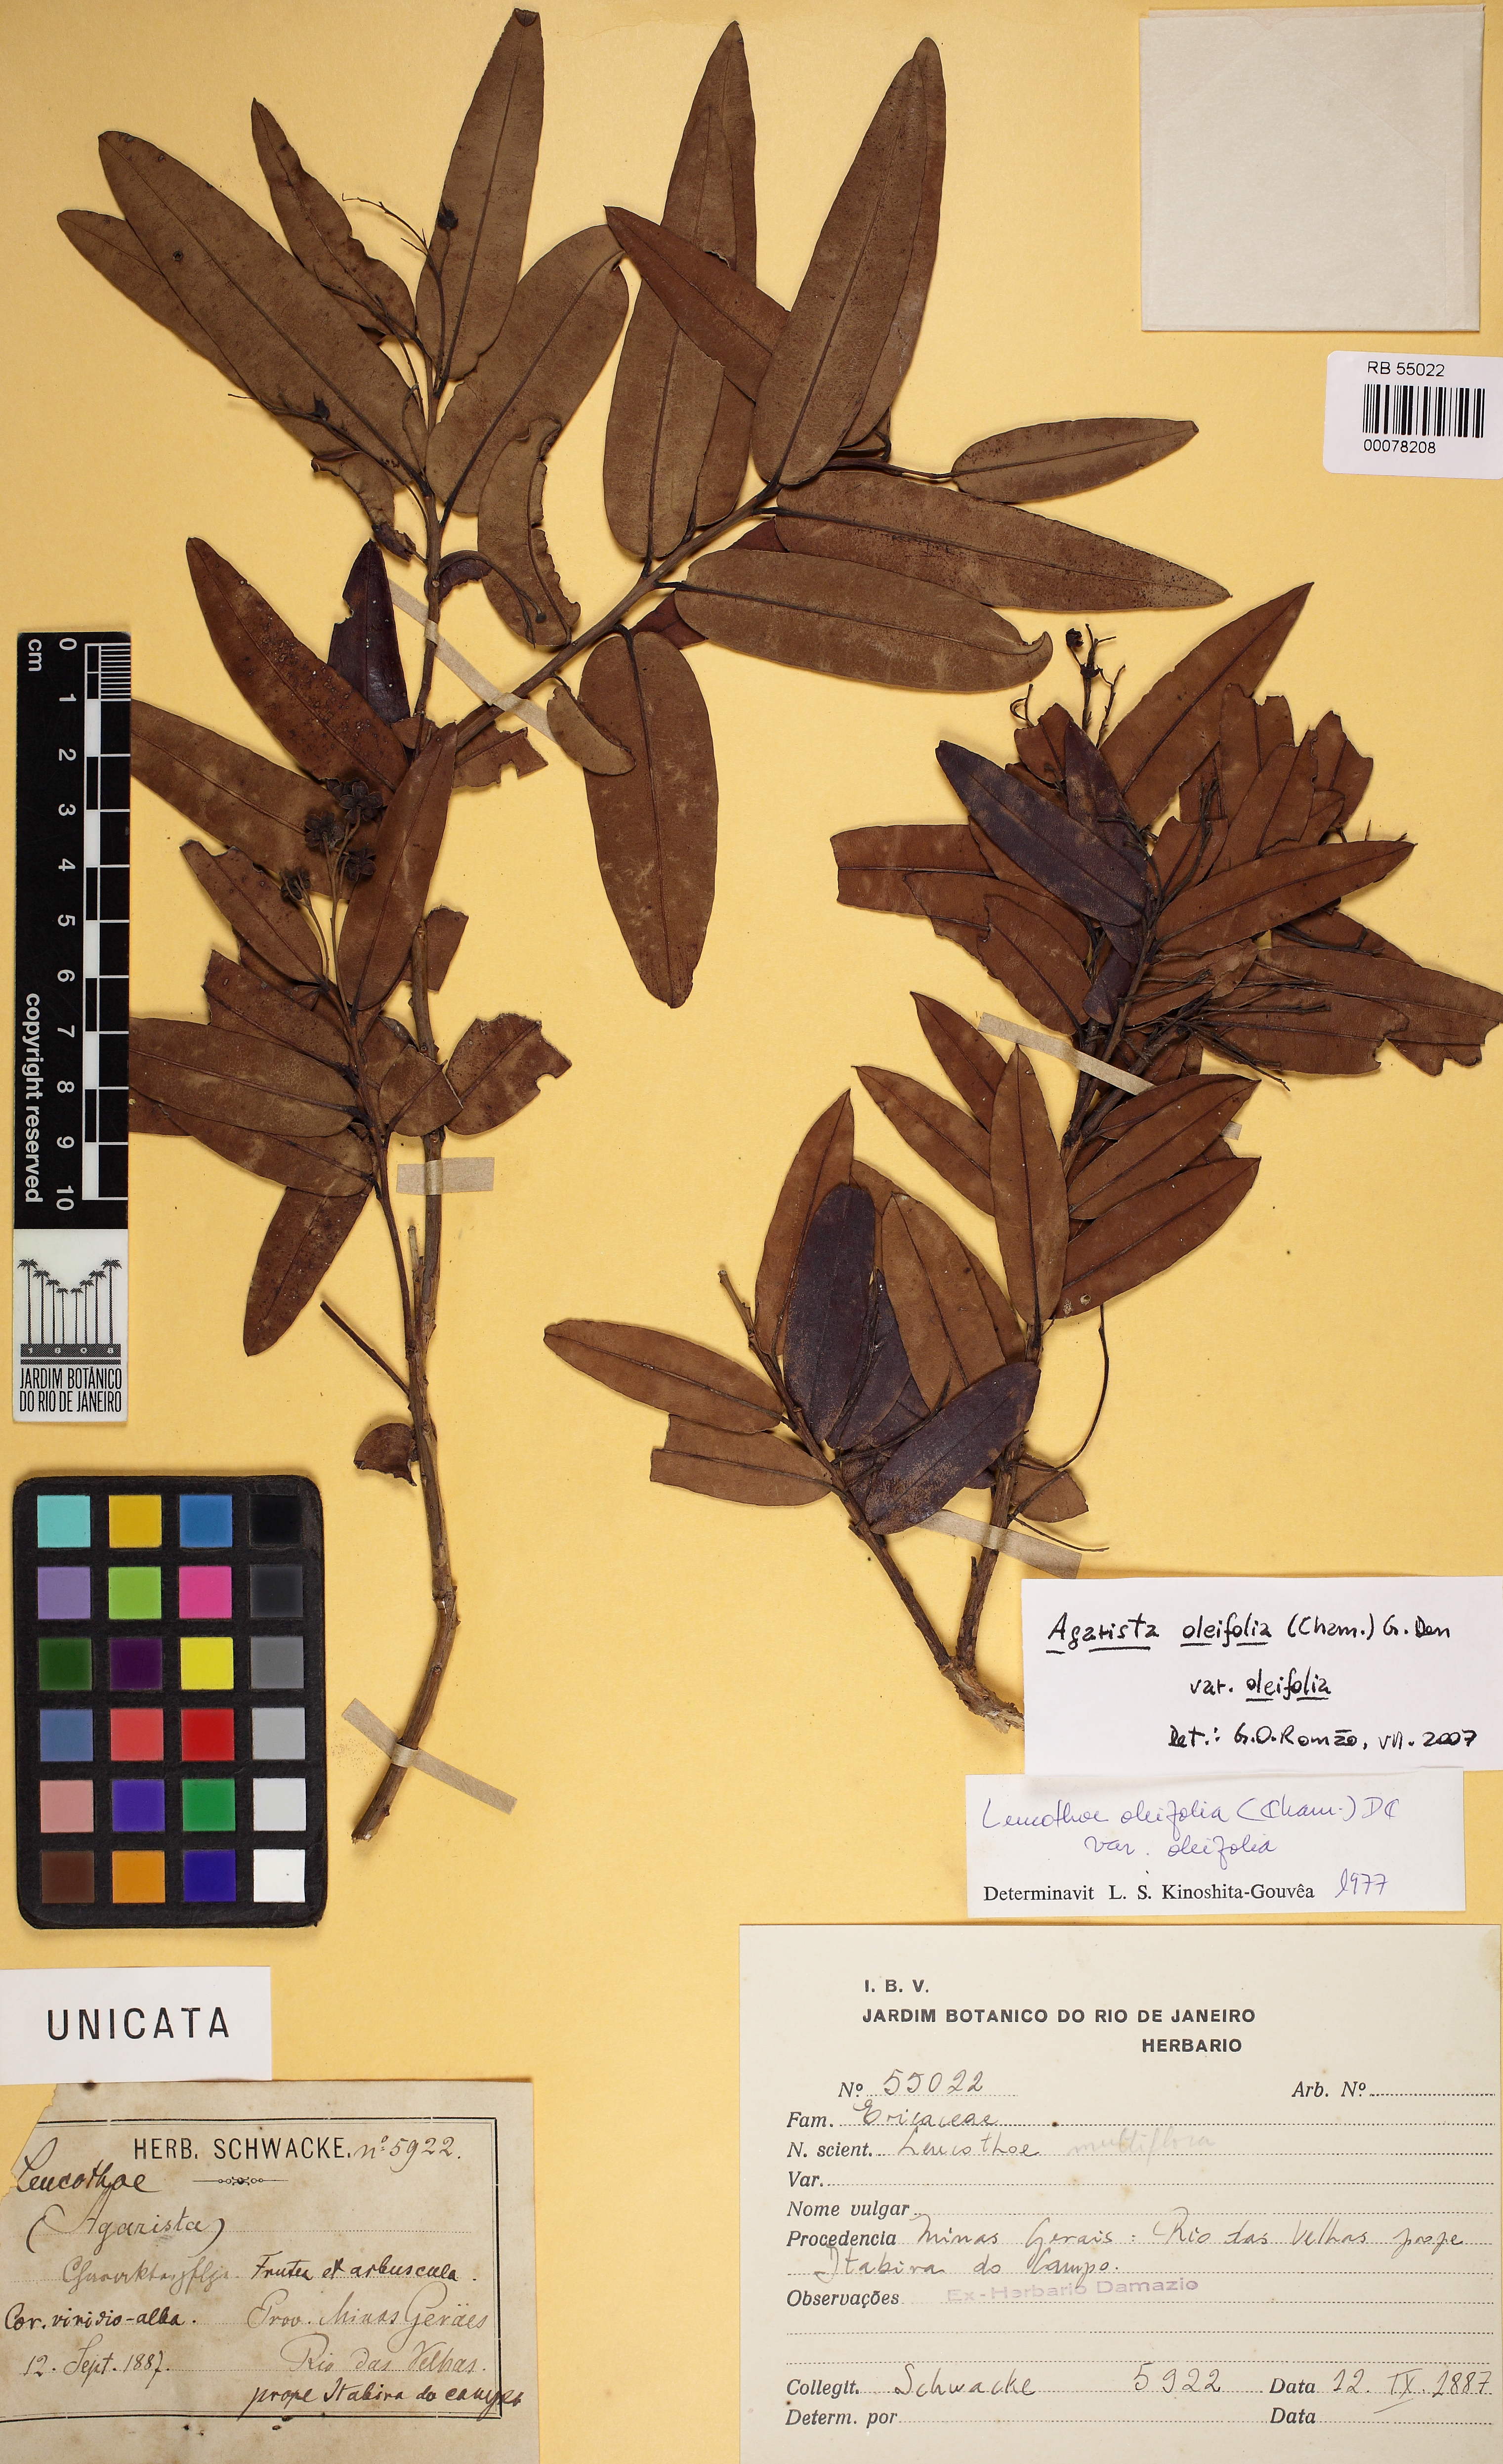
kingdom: Plantae
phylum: Tracheophyta
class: Magnoliopsida
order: Ericales
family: Ericaceae
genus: Agarista
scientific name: Agarista oleifolia
